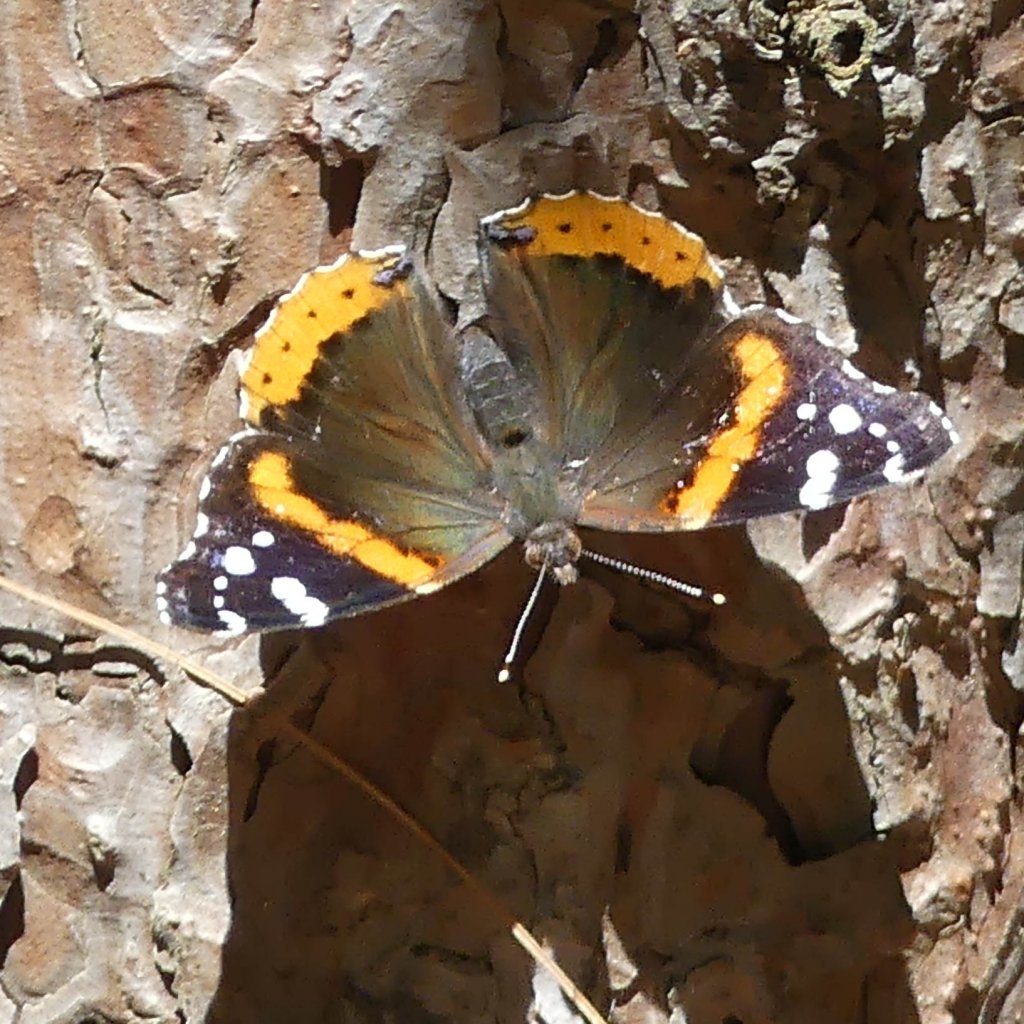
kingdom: Animalia
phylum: Arthropoda
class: Insecta
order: Lepidoptera
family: Nymphalidae
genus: Vanessa
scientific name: Vanessa atalanta
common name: Red Admiral
